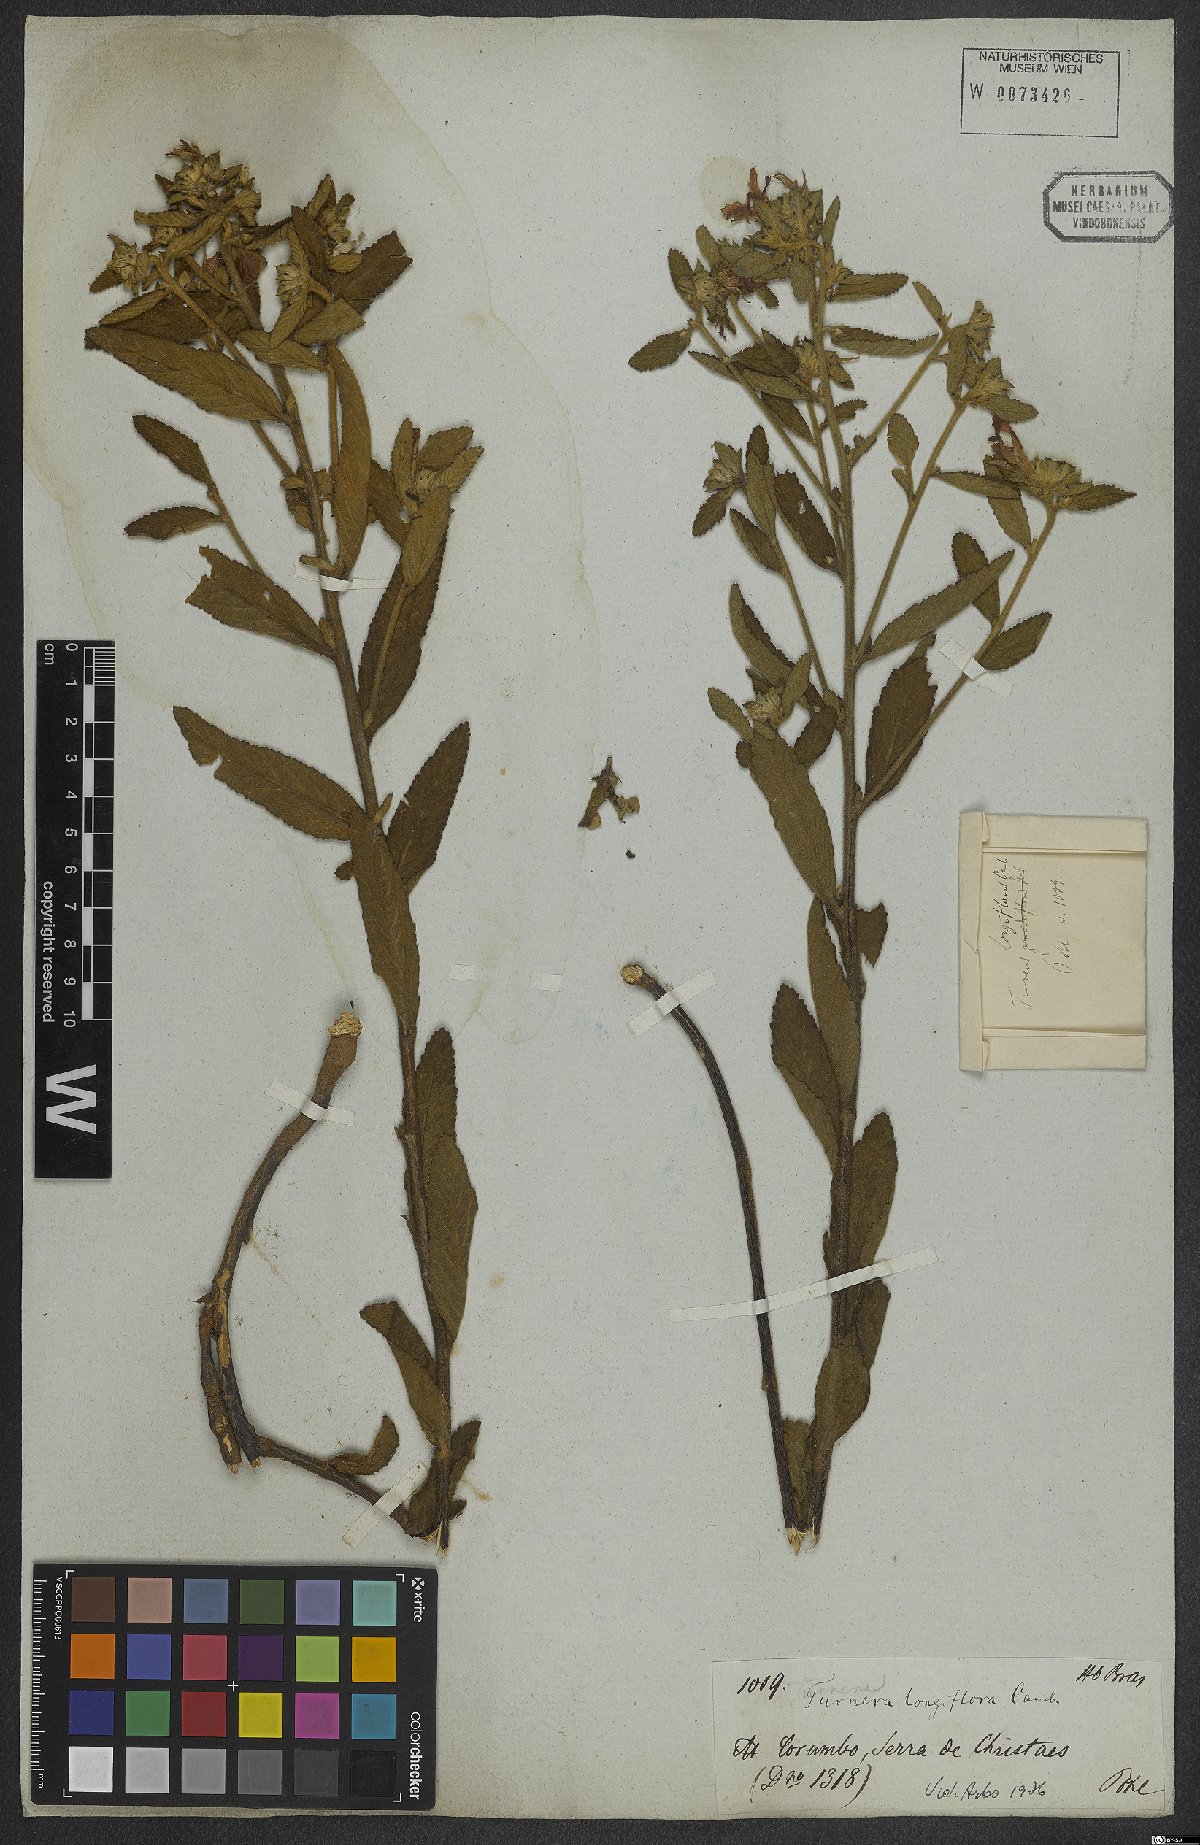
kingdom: Plantae
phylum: Tracheophyta
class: Magnoliopsida
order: Malpighiales
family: Turneraceae
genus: Turnera
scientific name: Turnera longiflora
